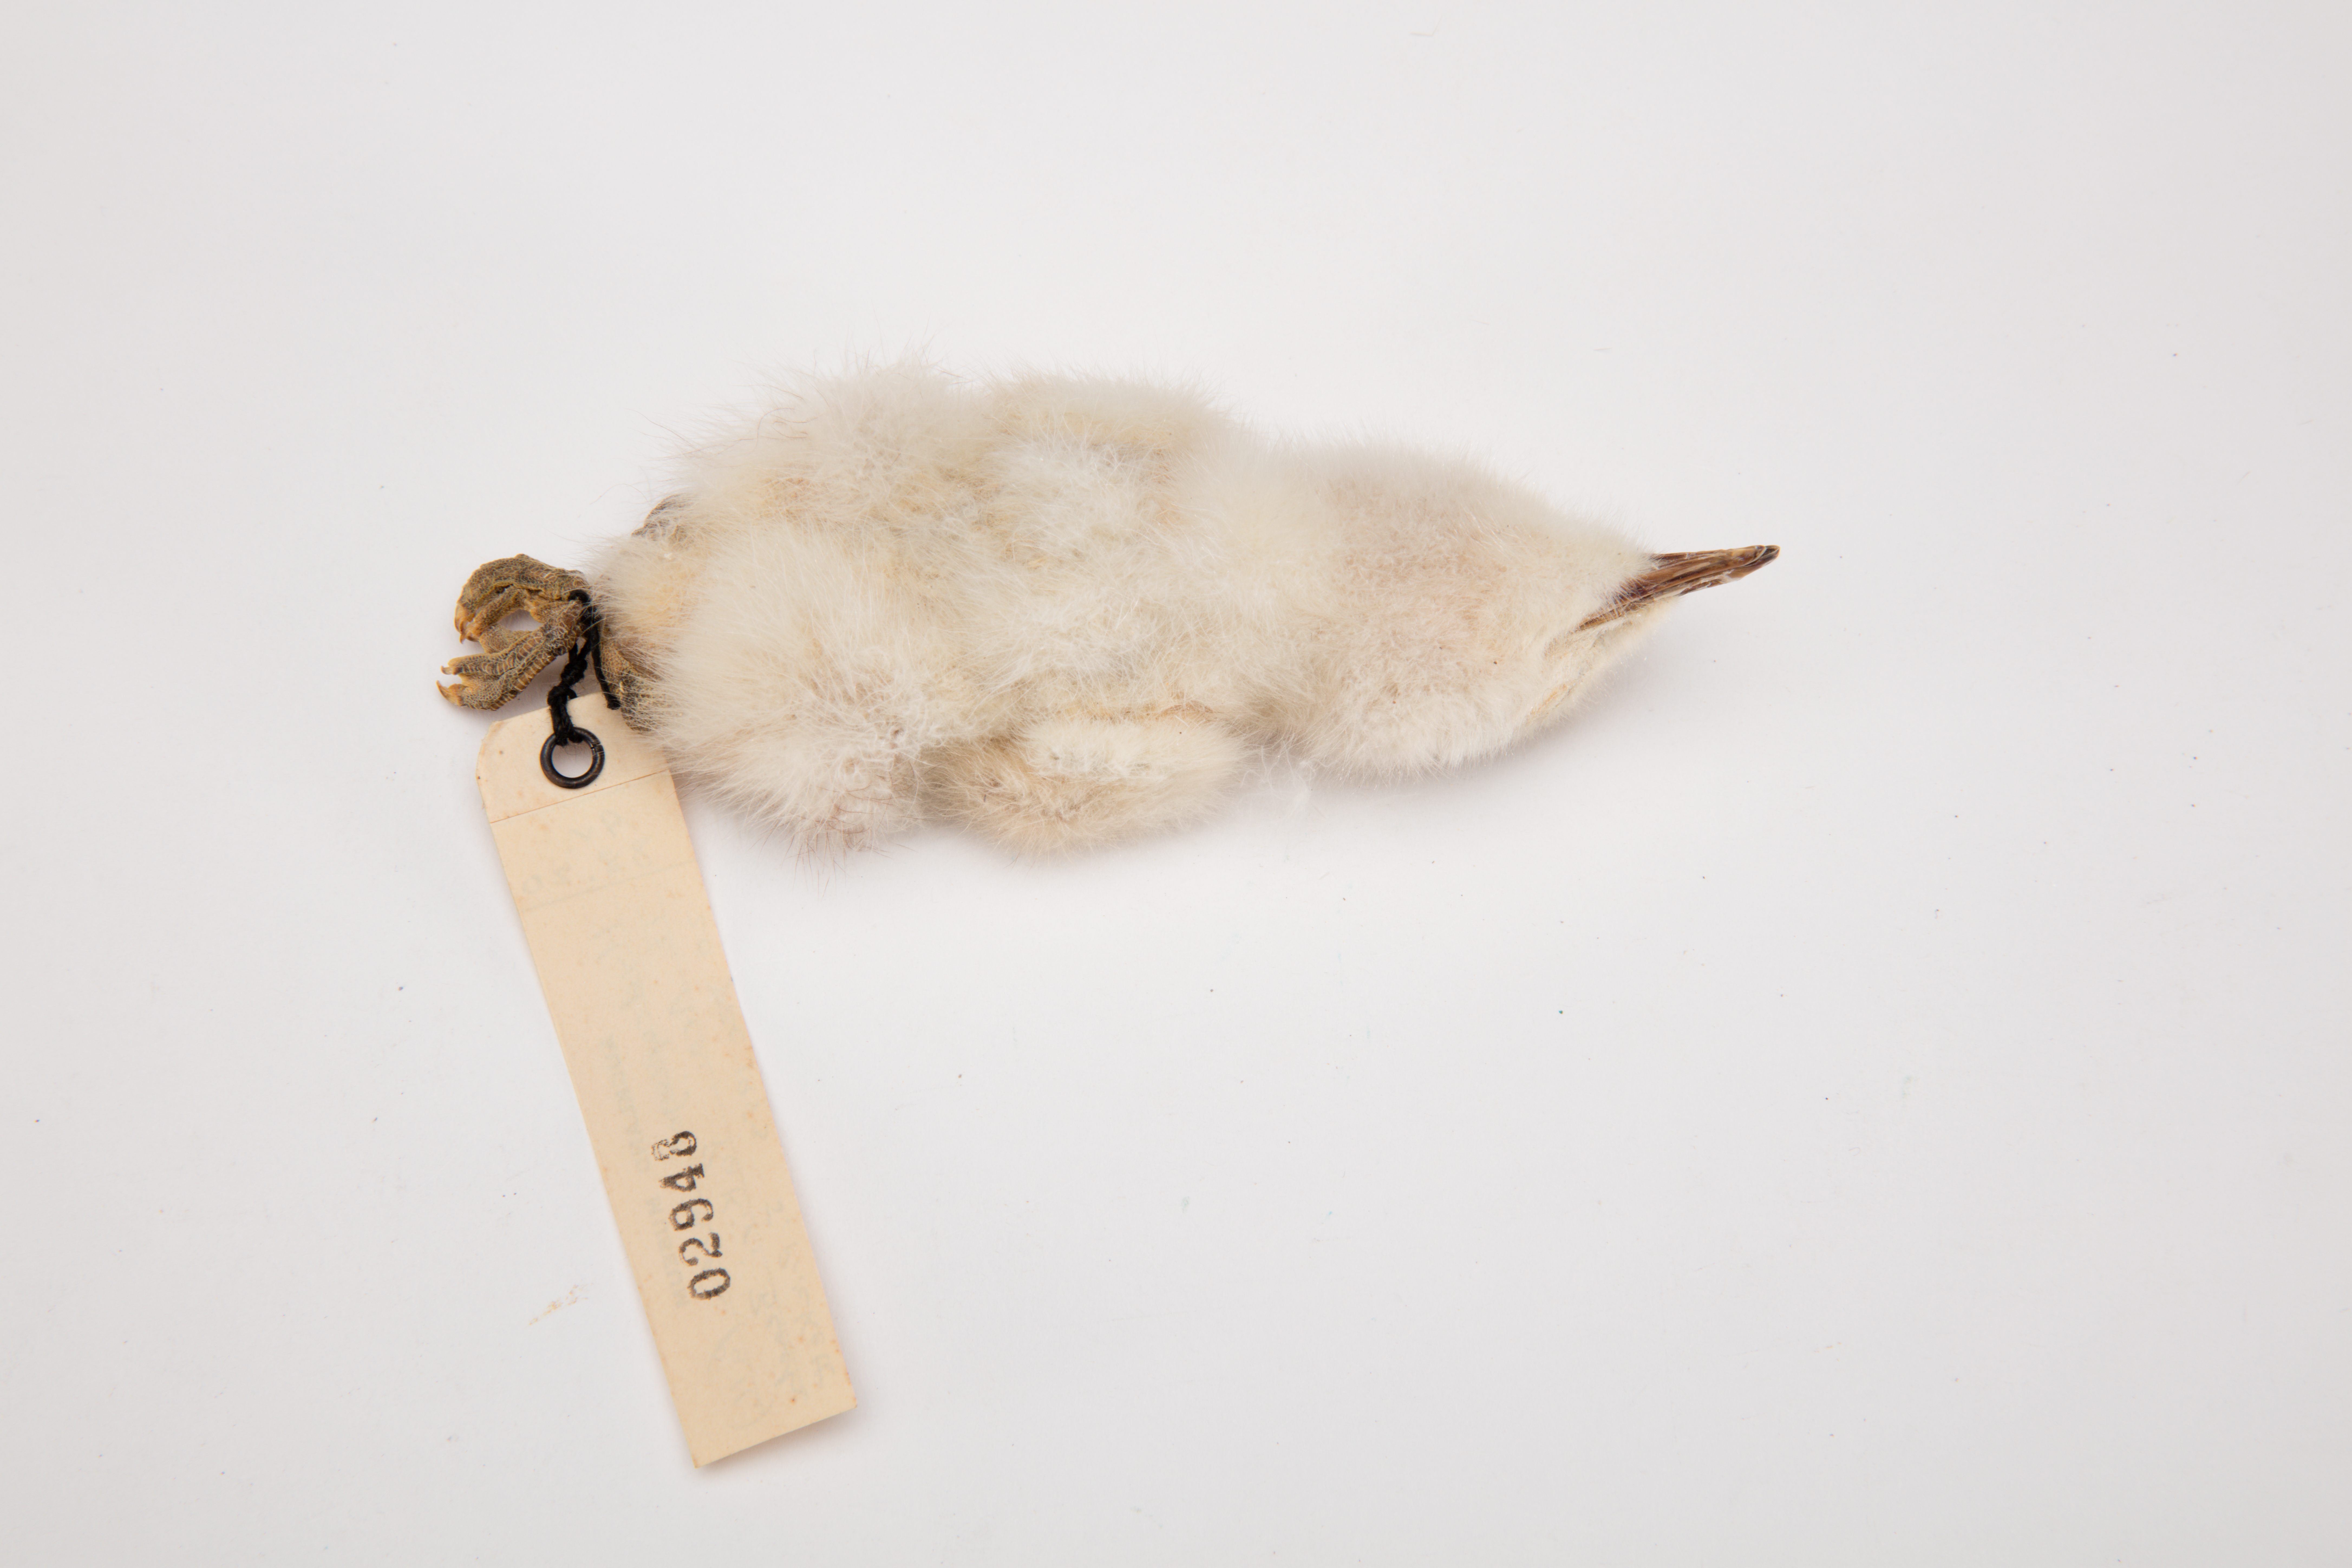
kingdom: Animalia
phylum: Chordata
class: Aves
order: Charadriiformes
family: Laridae
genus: Hydroprogne
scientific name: Hydroprogne caspia
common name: Caspian tern
